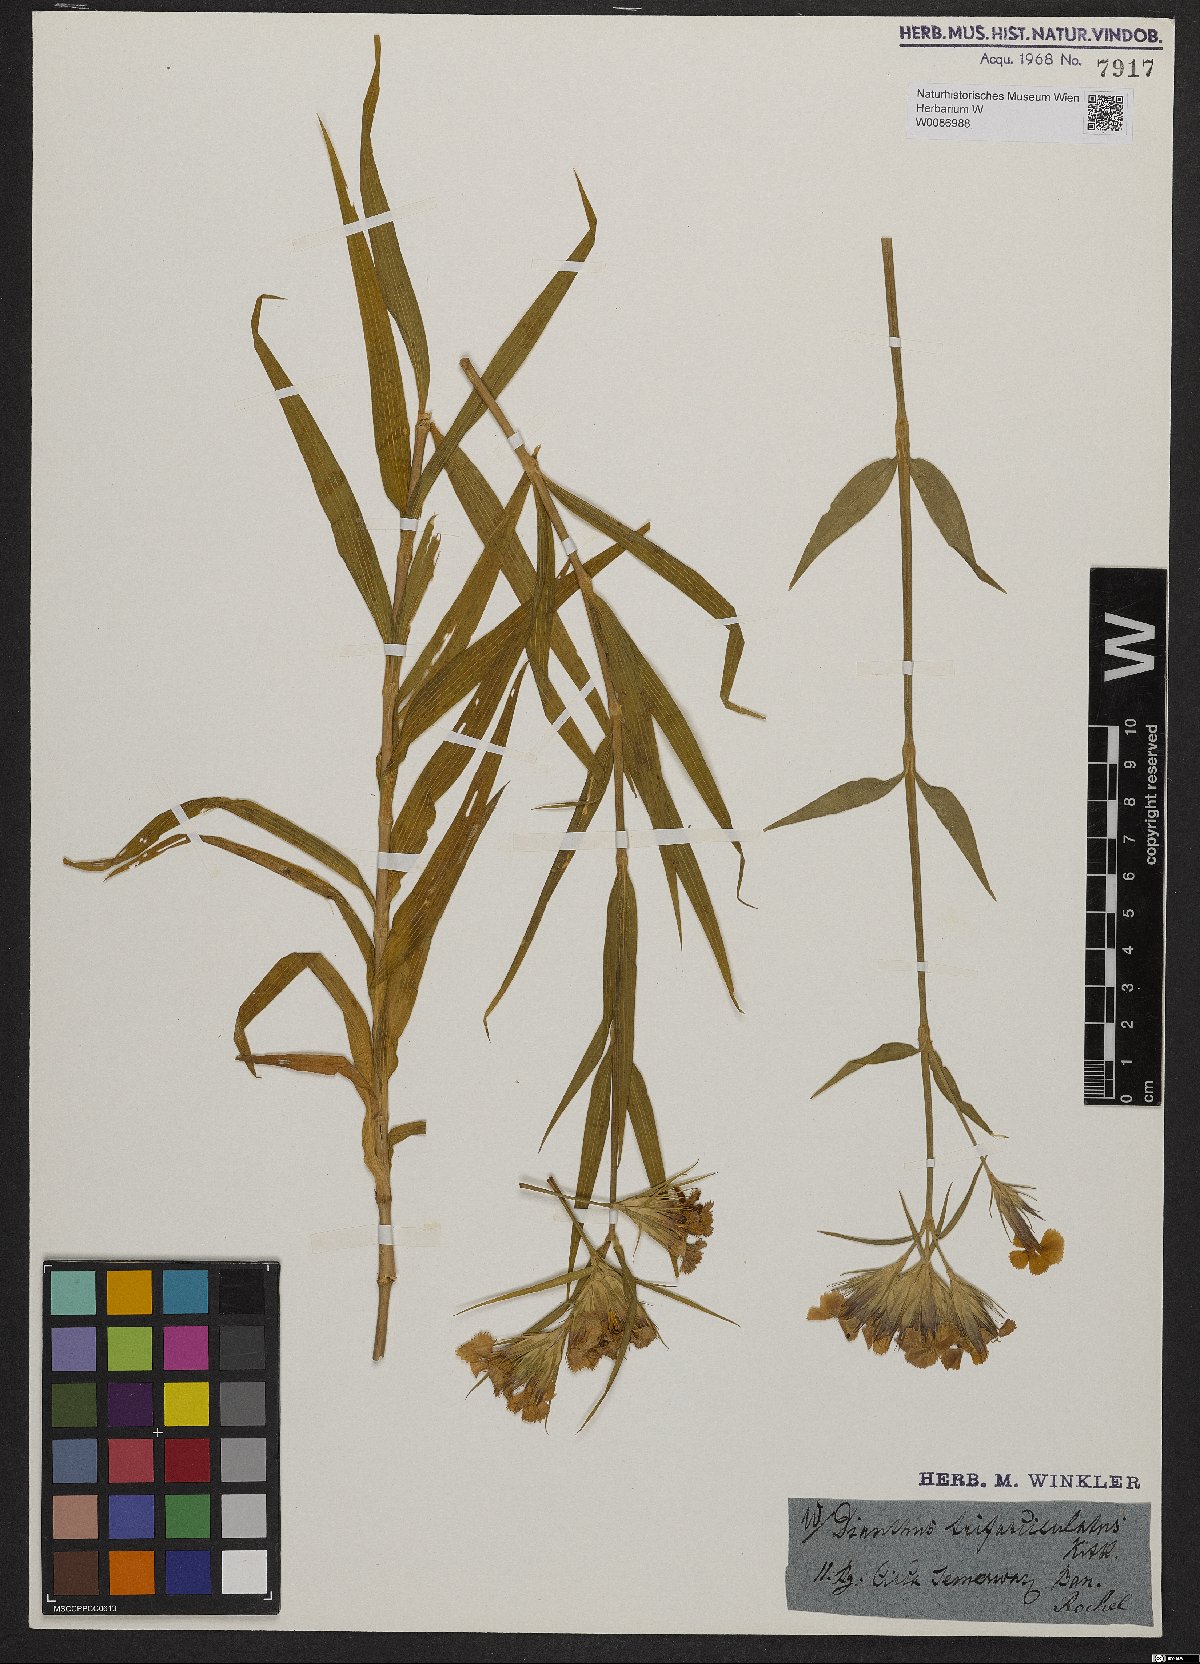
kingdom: Plantae
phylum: Tracheophyta
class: Magnoliopsida
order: Caryophyllales
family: Caryophyllaceae
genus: Dianthus
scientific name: Dianthus trifasciculatus
